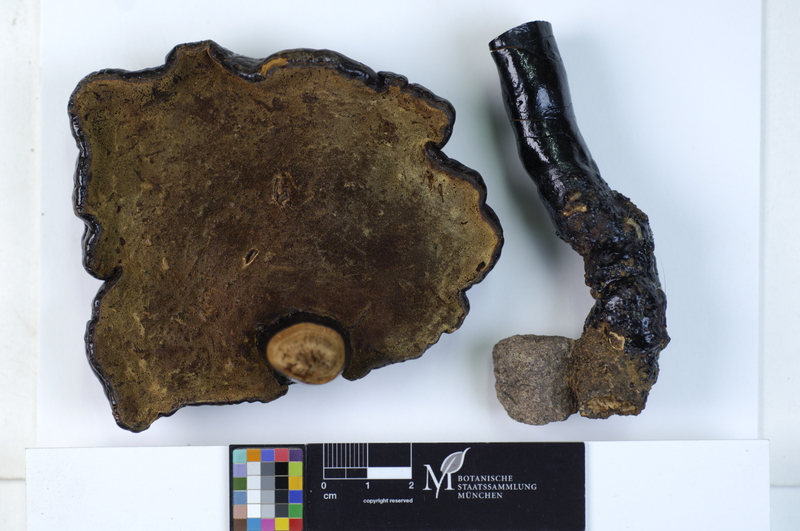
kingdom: Fungi
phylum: Basidiomycota
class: Agaricomycetes
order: Polyporales
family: Polyporaceae
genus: Ganoderma
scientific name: Ganoderma lucidum
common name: Lacquered bracket
